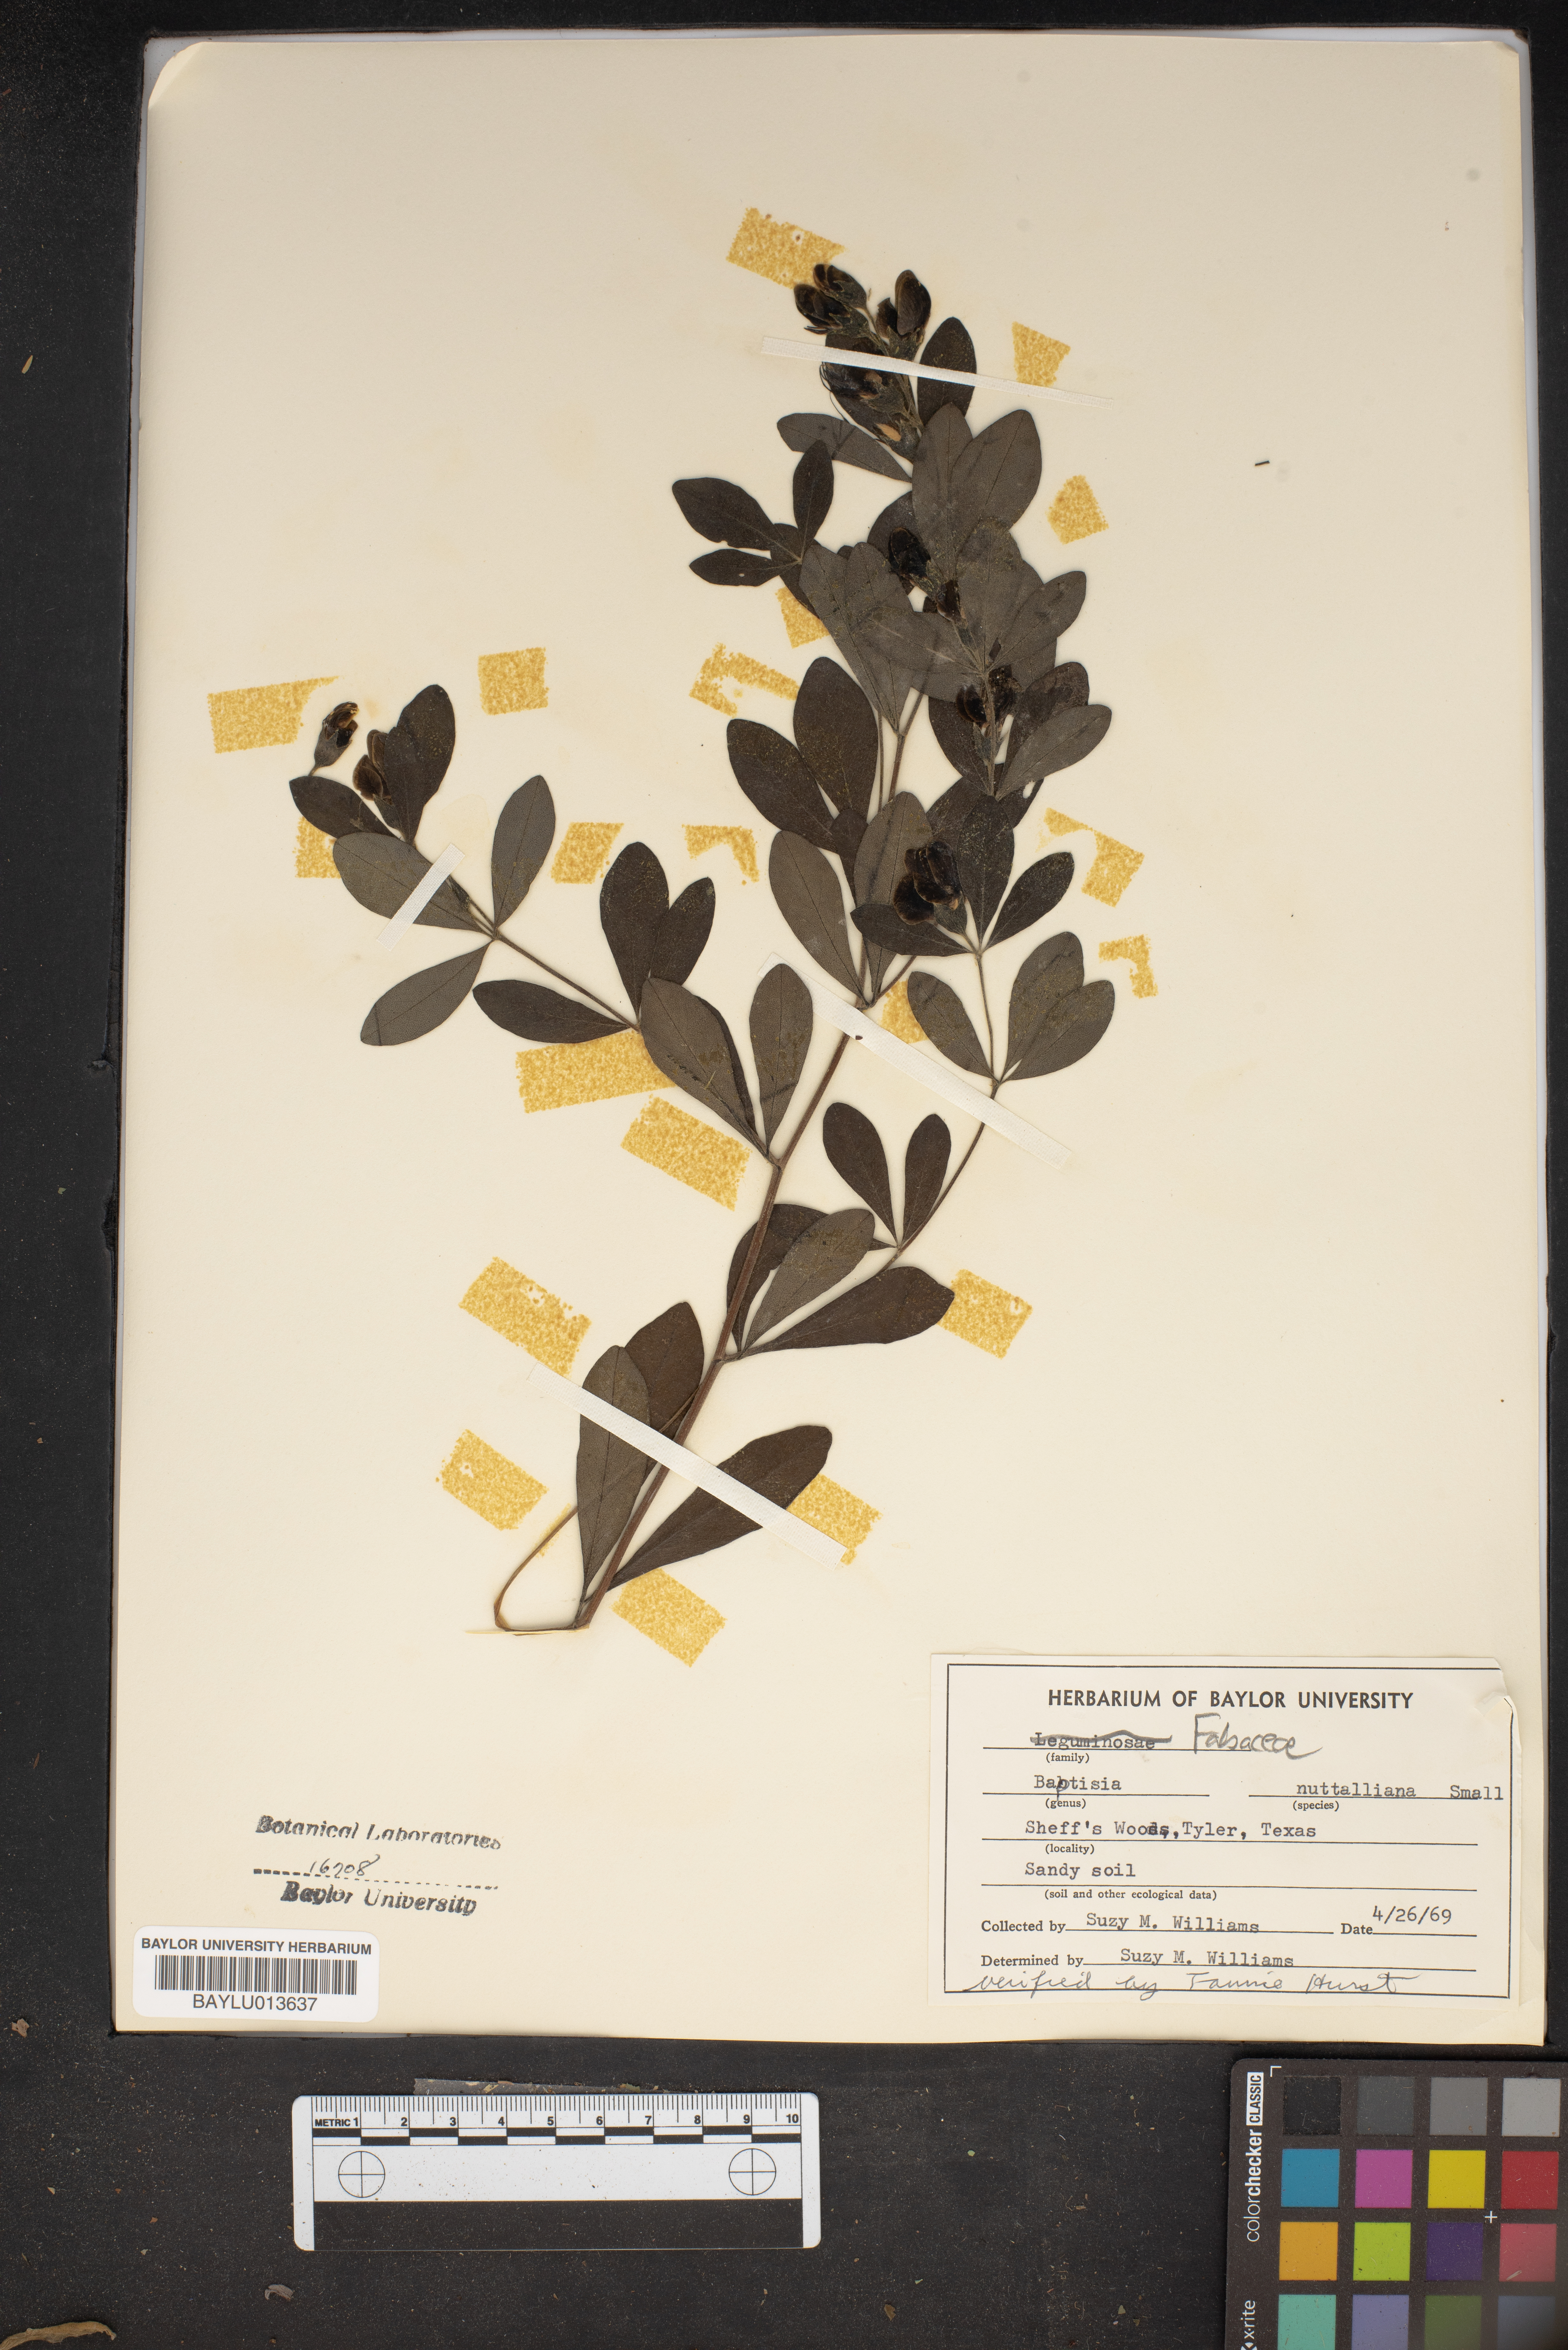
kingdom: Plantae
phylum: Tracheophyta
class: Magnoliopsida
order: Fabales
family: Fabaceae
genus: Baptisia
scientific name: Baptisia nuttalliana
